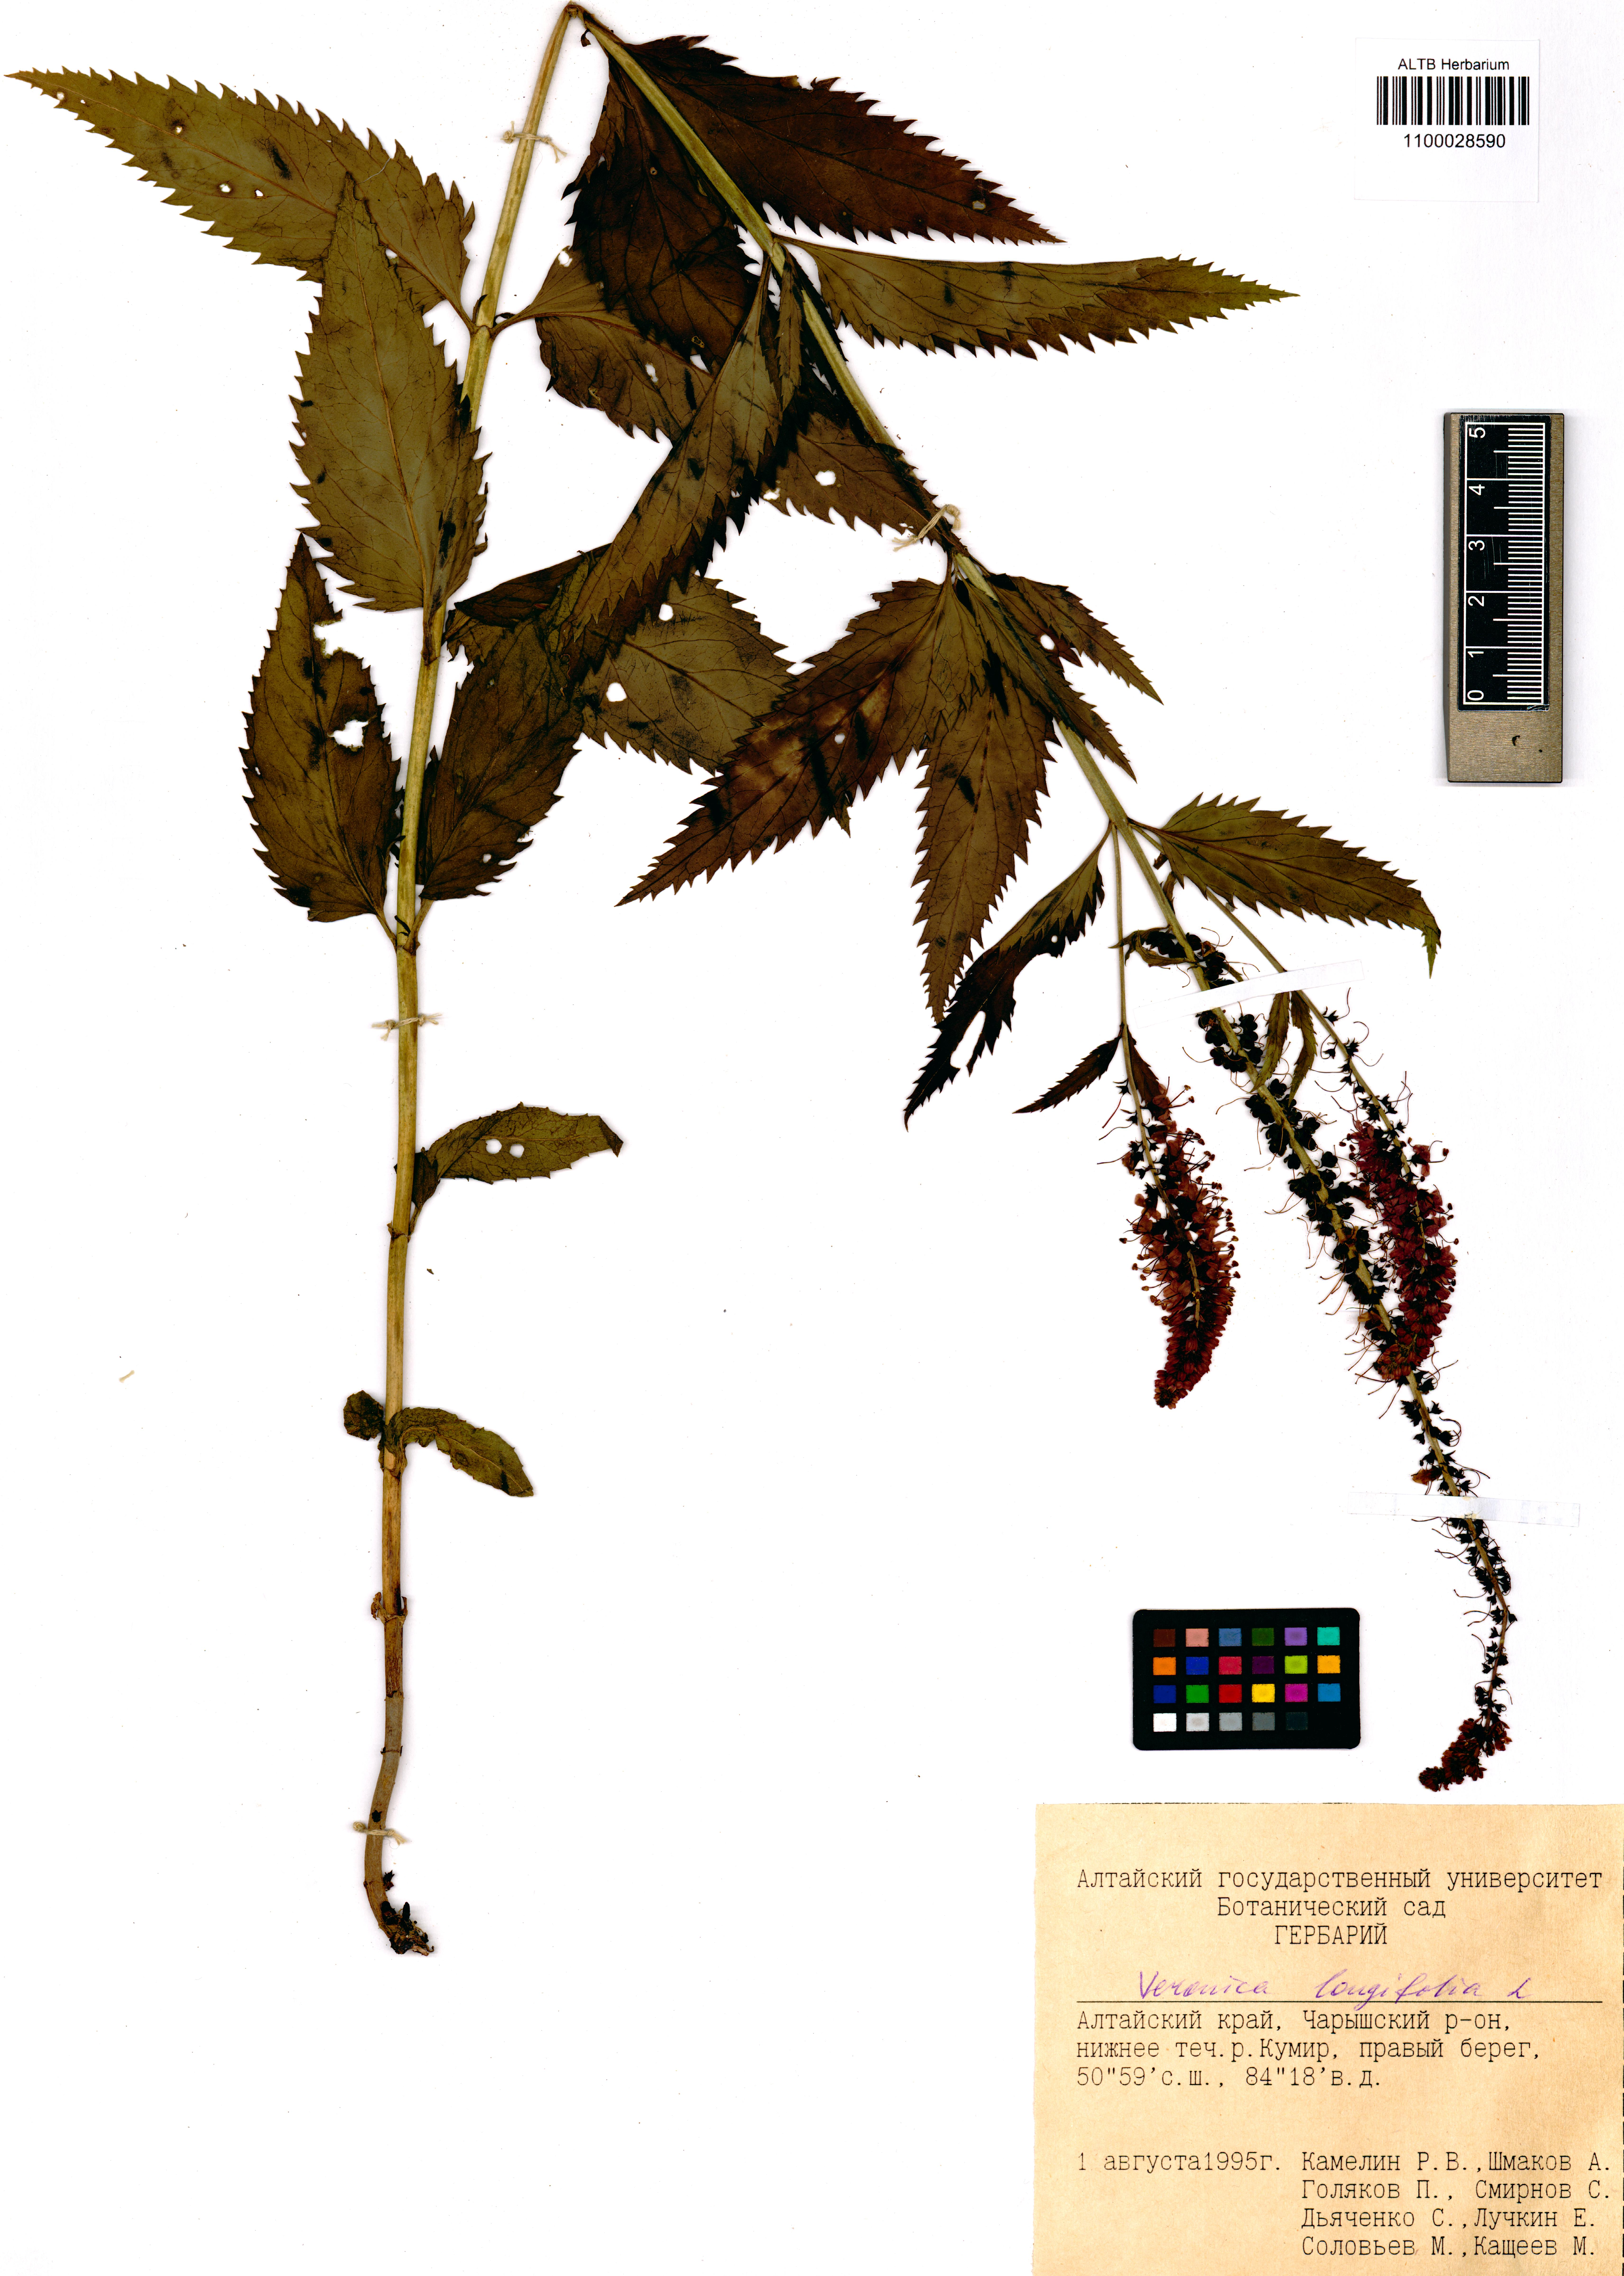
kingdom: Plantae
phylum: Tracheophyta
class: Magnoliopsida
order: Lamiales
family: Plantaginaceae
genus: Veronica
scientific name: Veronica longifolia
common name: Garden speedwell
